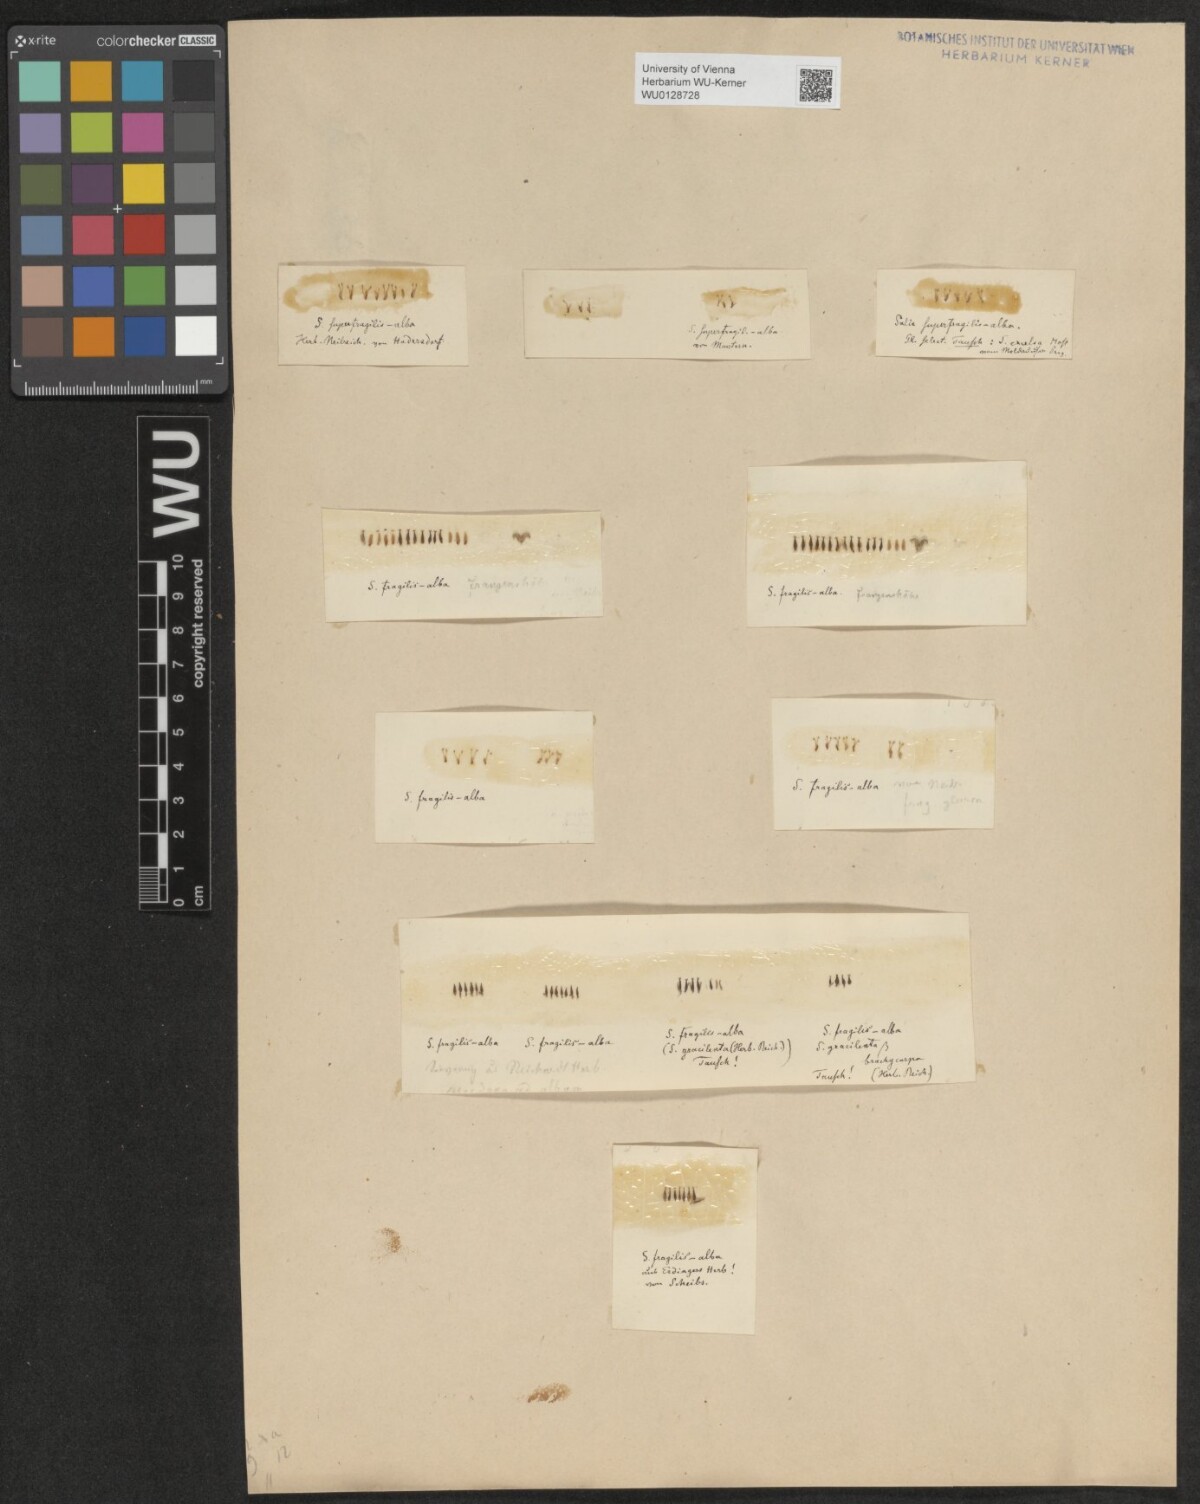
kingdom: Plantae
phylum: Tracheophyta
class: Magnoliopsida
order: Malpighiales
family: Salicaceae
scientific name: Salicaceae
